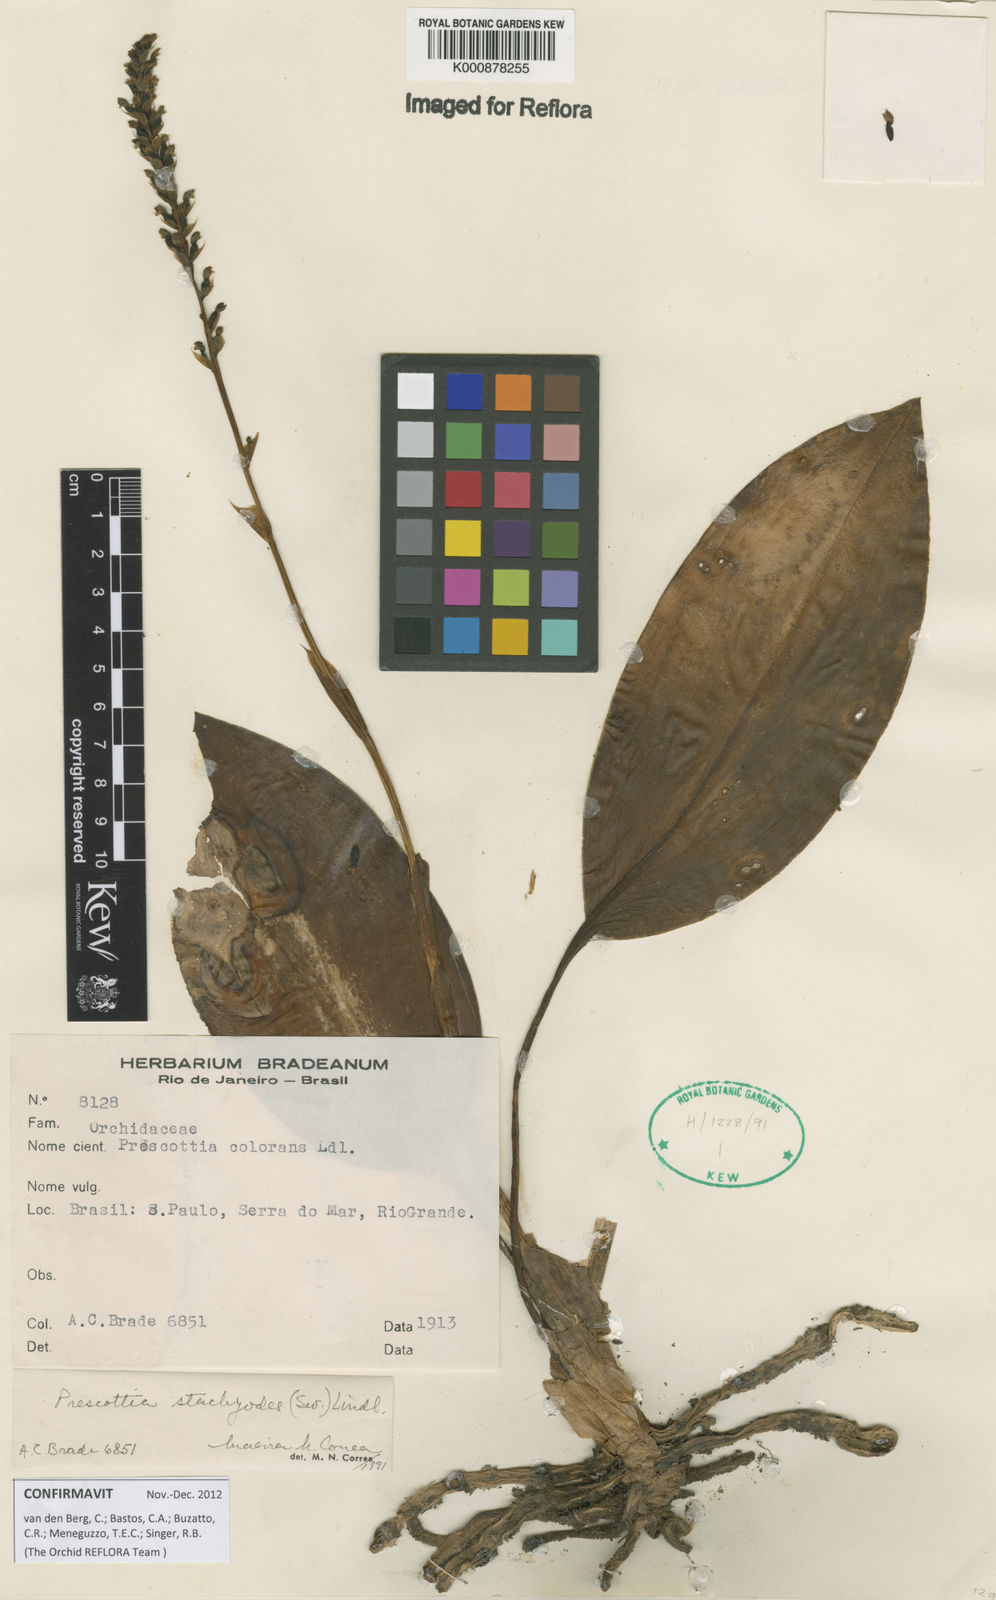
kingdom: Plantae
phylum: Tracheophyta
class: Liliopsida
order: Asparagales
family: Orchidaceae
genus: Prescottia
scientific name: Prescottia
